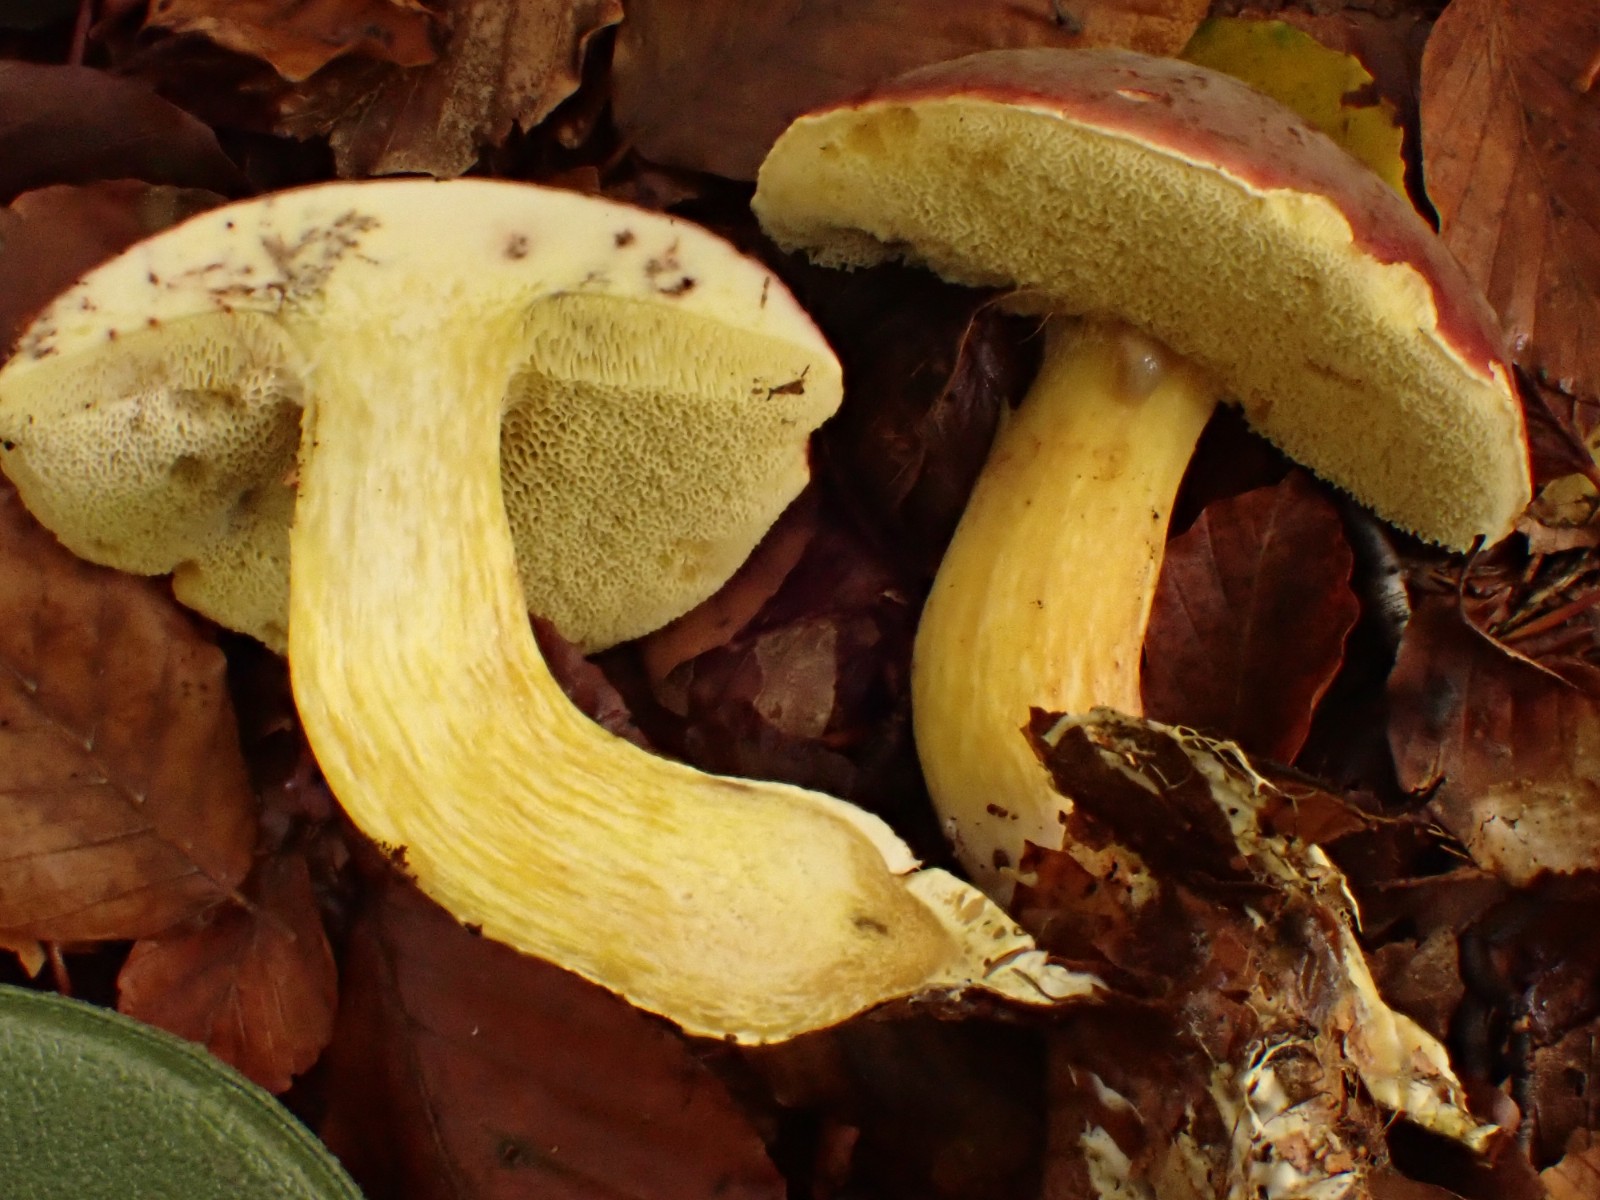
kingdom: Fungi
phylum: Basidiomycota
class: Agaricomycetes
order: Boletales
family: Boletaceae
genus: Xerocomellus
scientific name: Xerocomellus pruinatus
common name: dugget rørhat
